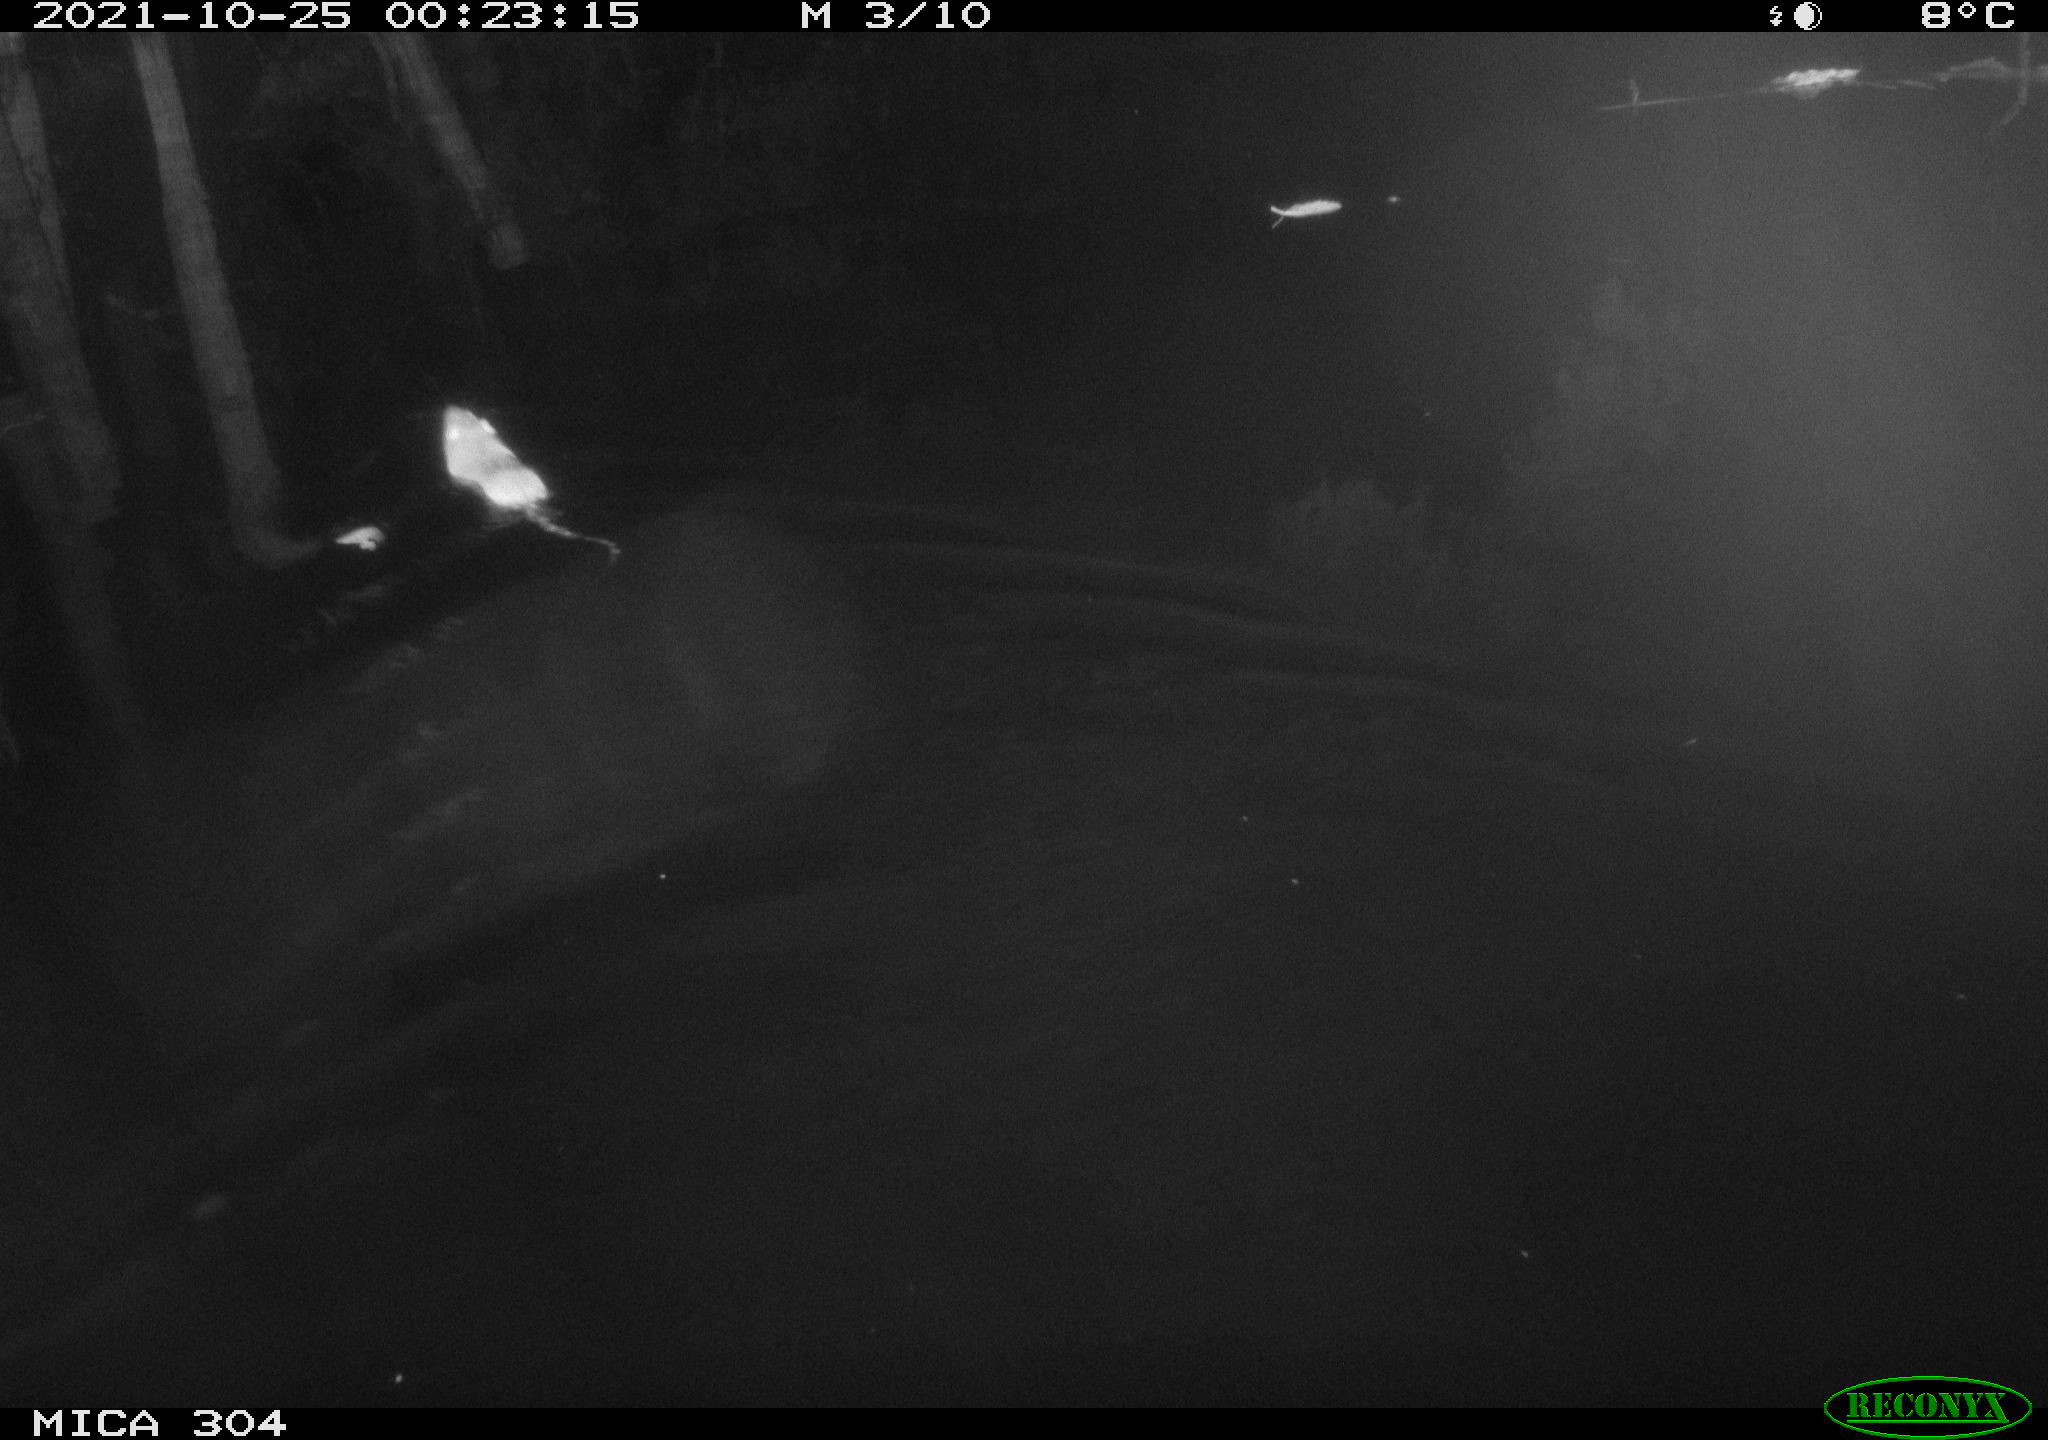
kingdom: Animalia
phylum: Chordata
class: Mammalia
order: Rodentia
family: Muridae
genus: Rattus
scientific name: Rattus norvegicus
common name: Brown rat
